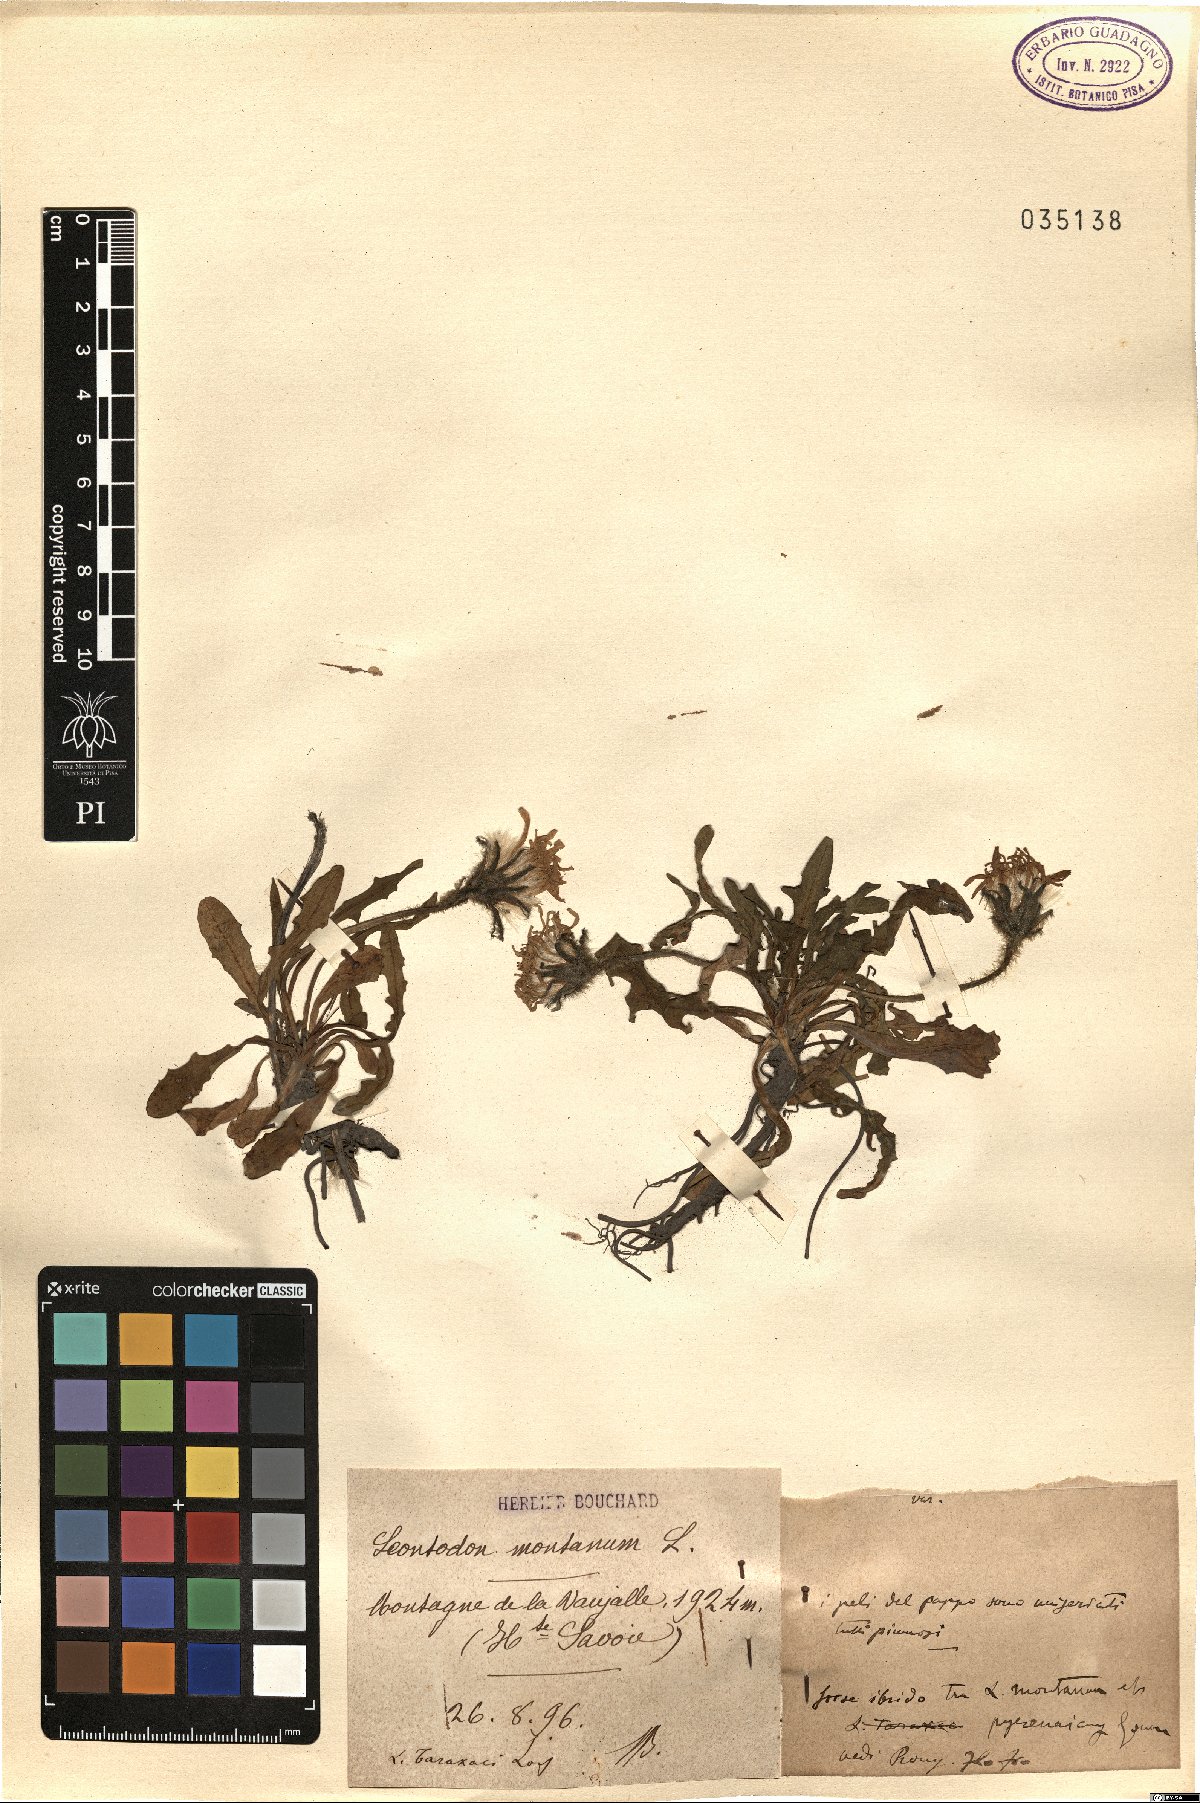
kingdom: Plantae
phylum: Tracheophyta
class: Magnoliopsida
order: Asterales
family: Asteraceae
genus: Scorzoneroides
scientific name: Scorzoneroides montana
